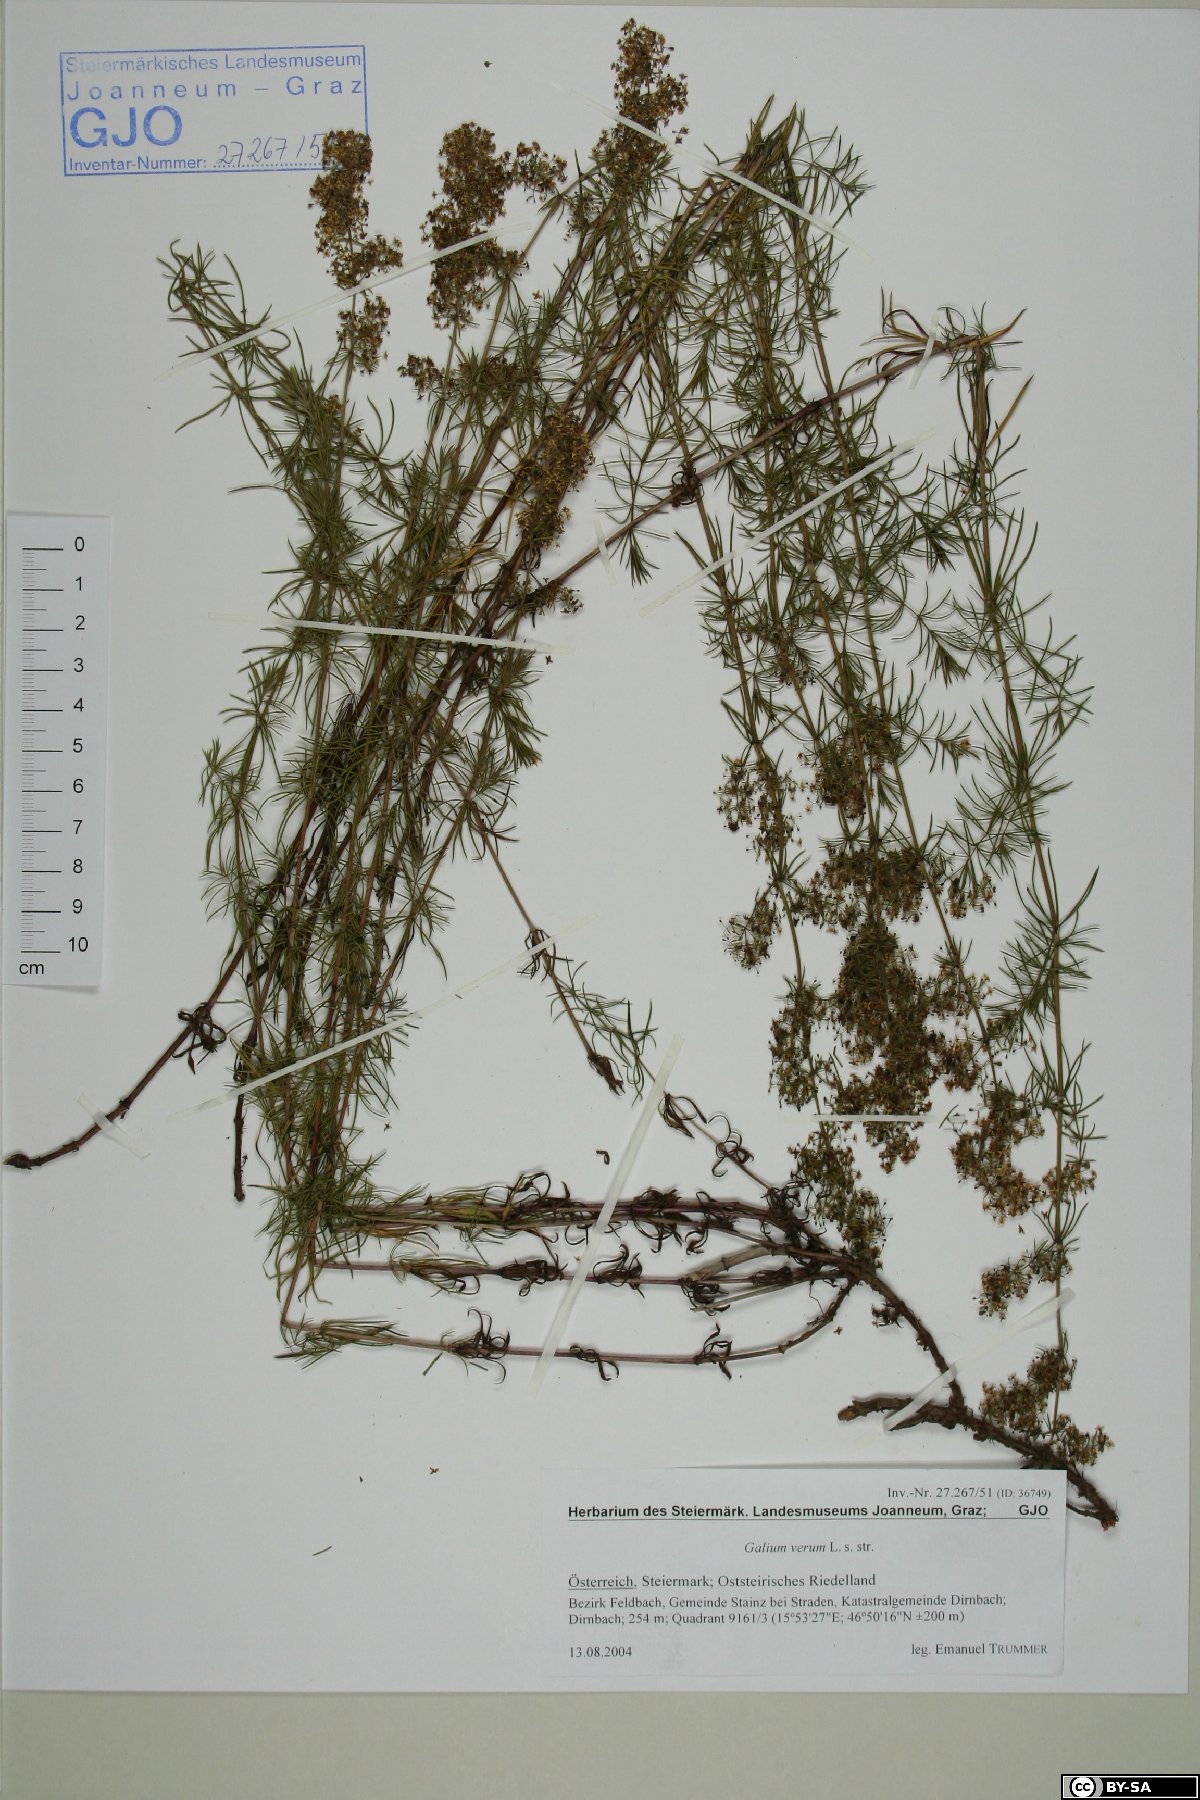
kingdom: Plantae
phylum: Tracheophyta
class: Magnoliopsida
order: Gentianales
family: Rubiaceae
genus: Galium
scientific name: Galium verum
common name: Lady's bedstraw
